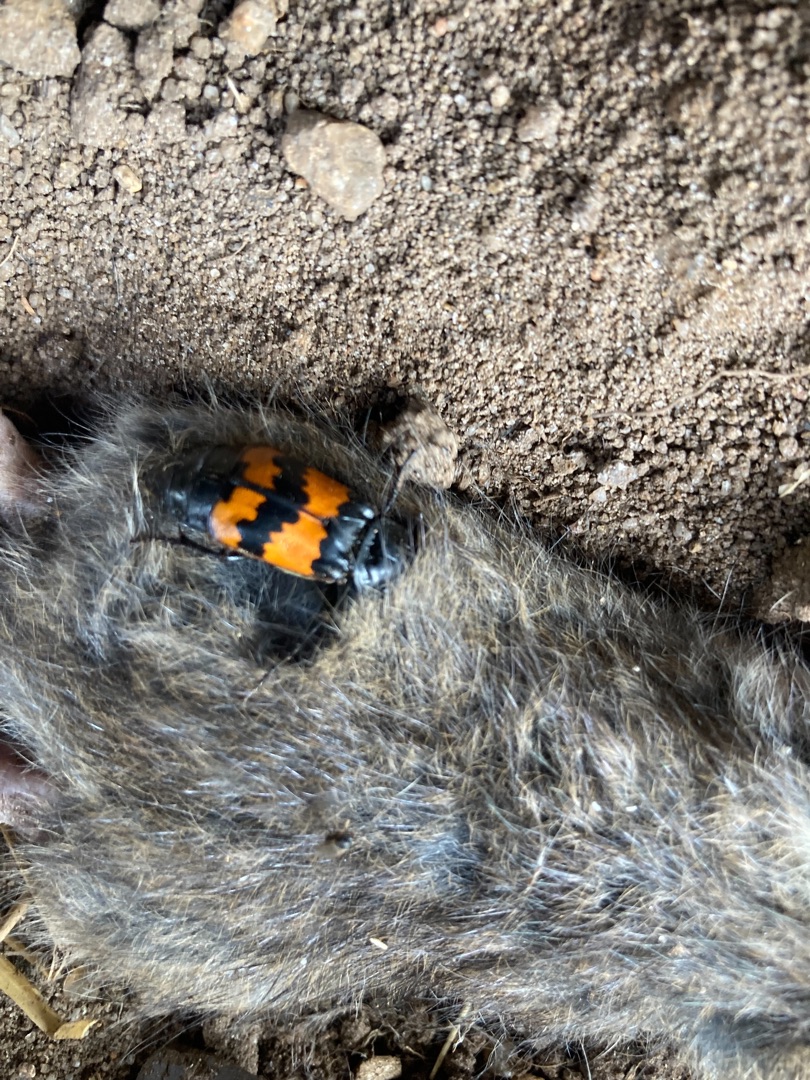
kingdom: Animalia
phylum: Arthropoda
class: Insecta
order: Coleoptera
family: Staphylinidae
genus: Nicrophorus
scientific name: Nicrophorus investigator
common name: Skovådselgraver
